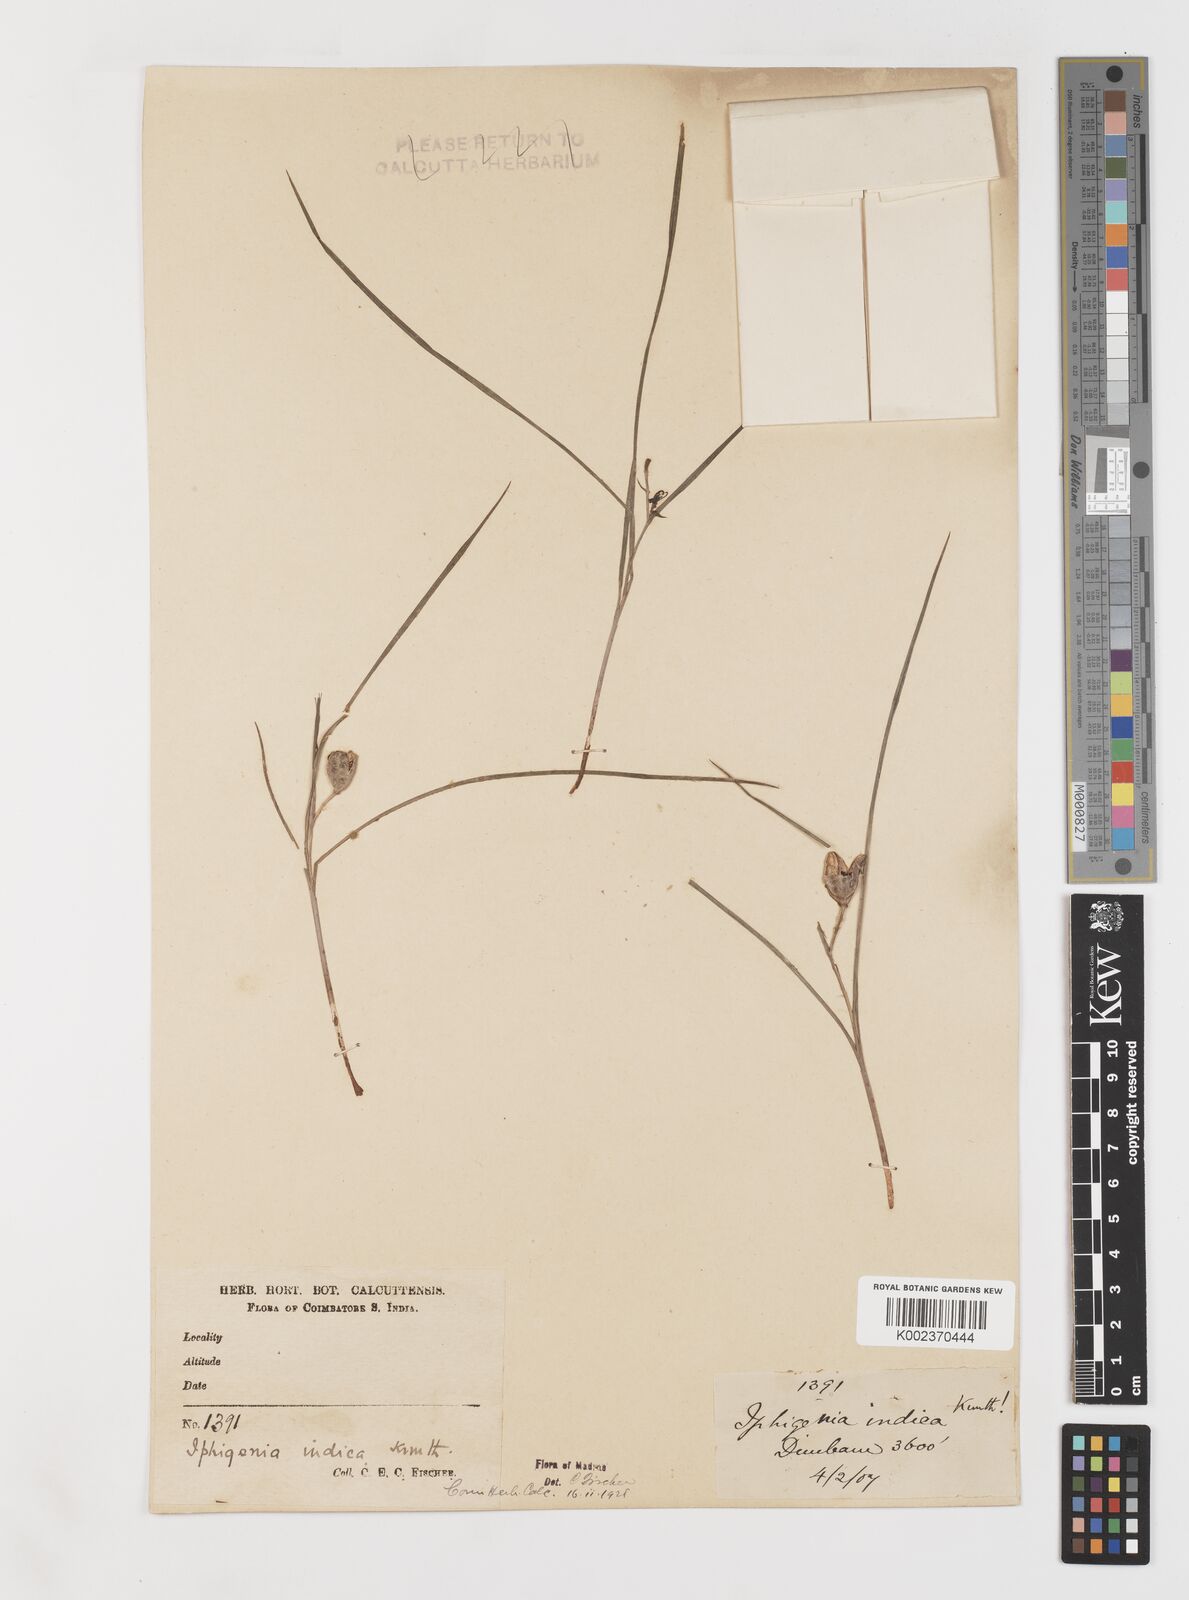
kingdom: Plantae
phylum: Tracheophyta
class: Liliopsida
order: Liliales
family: Colchicaceae
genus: Iphigenia
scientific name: Iphigenia indica
